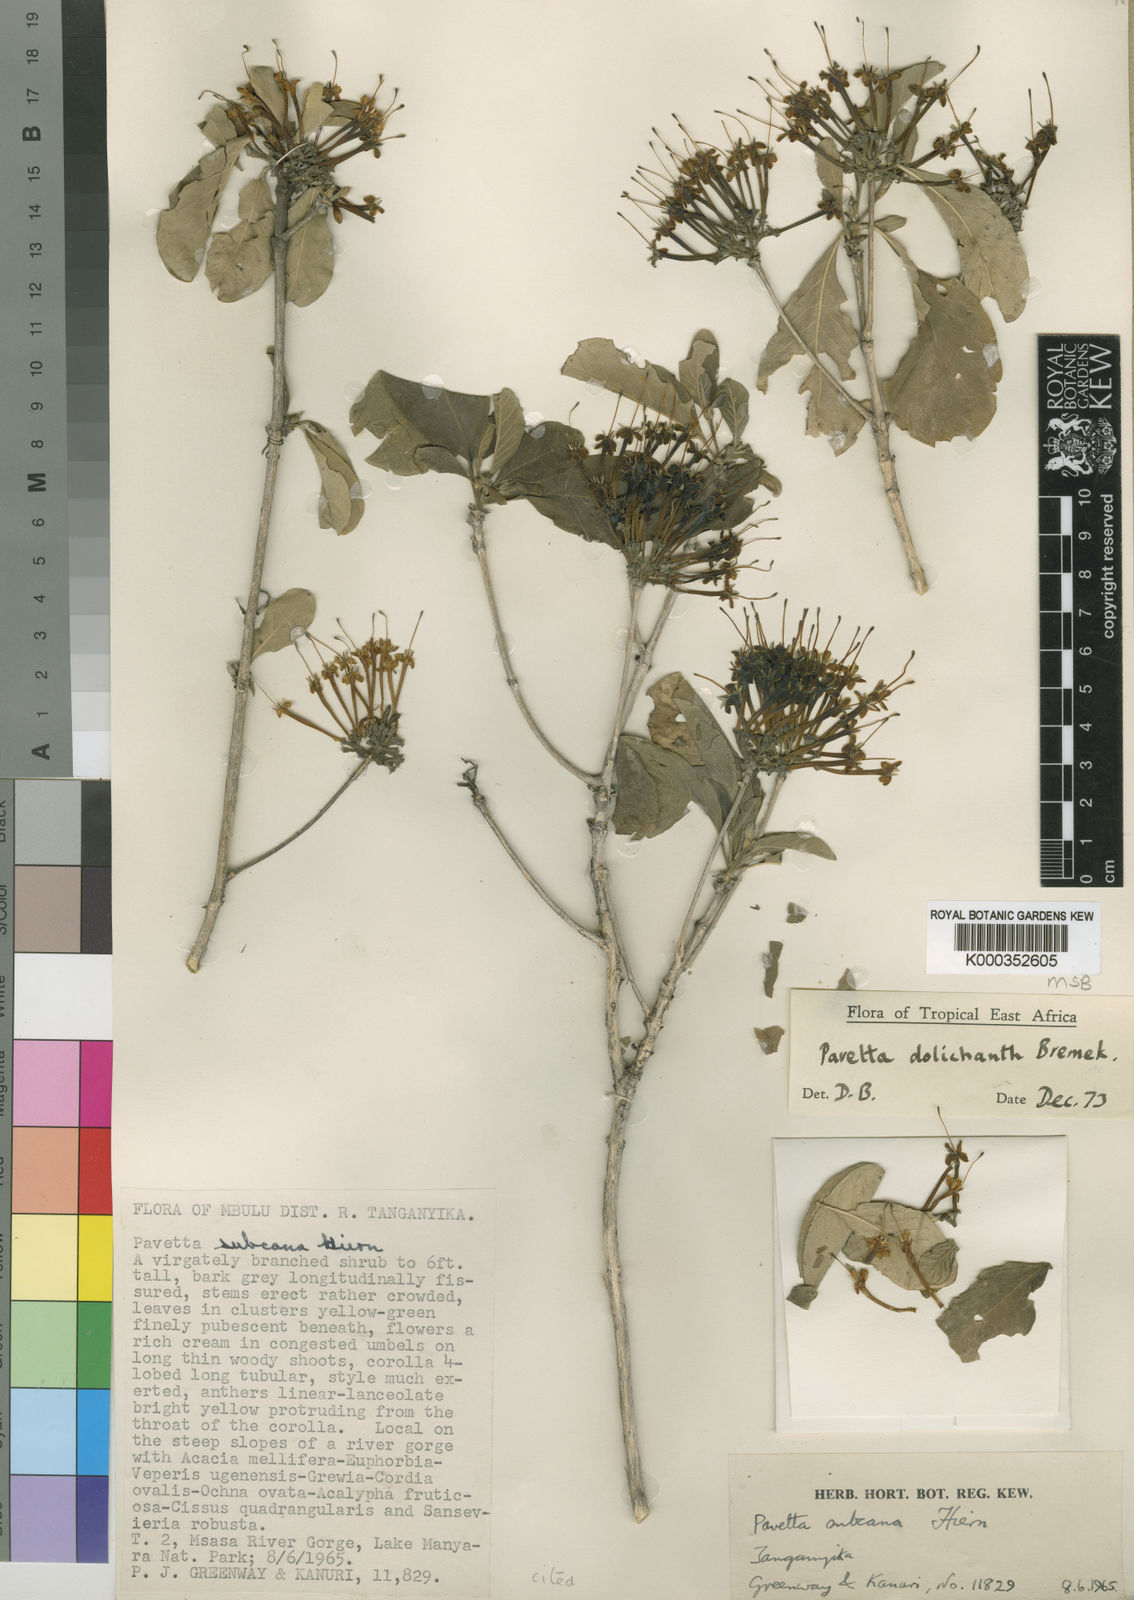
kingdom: Plantae
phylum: Tracheophyta
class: Magnoliopsida
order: Gentianales
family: Rubiaceae
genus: Pavetta
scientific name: Pavetta dolichantha
